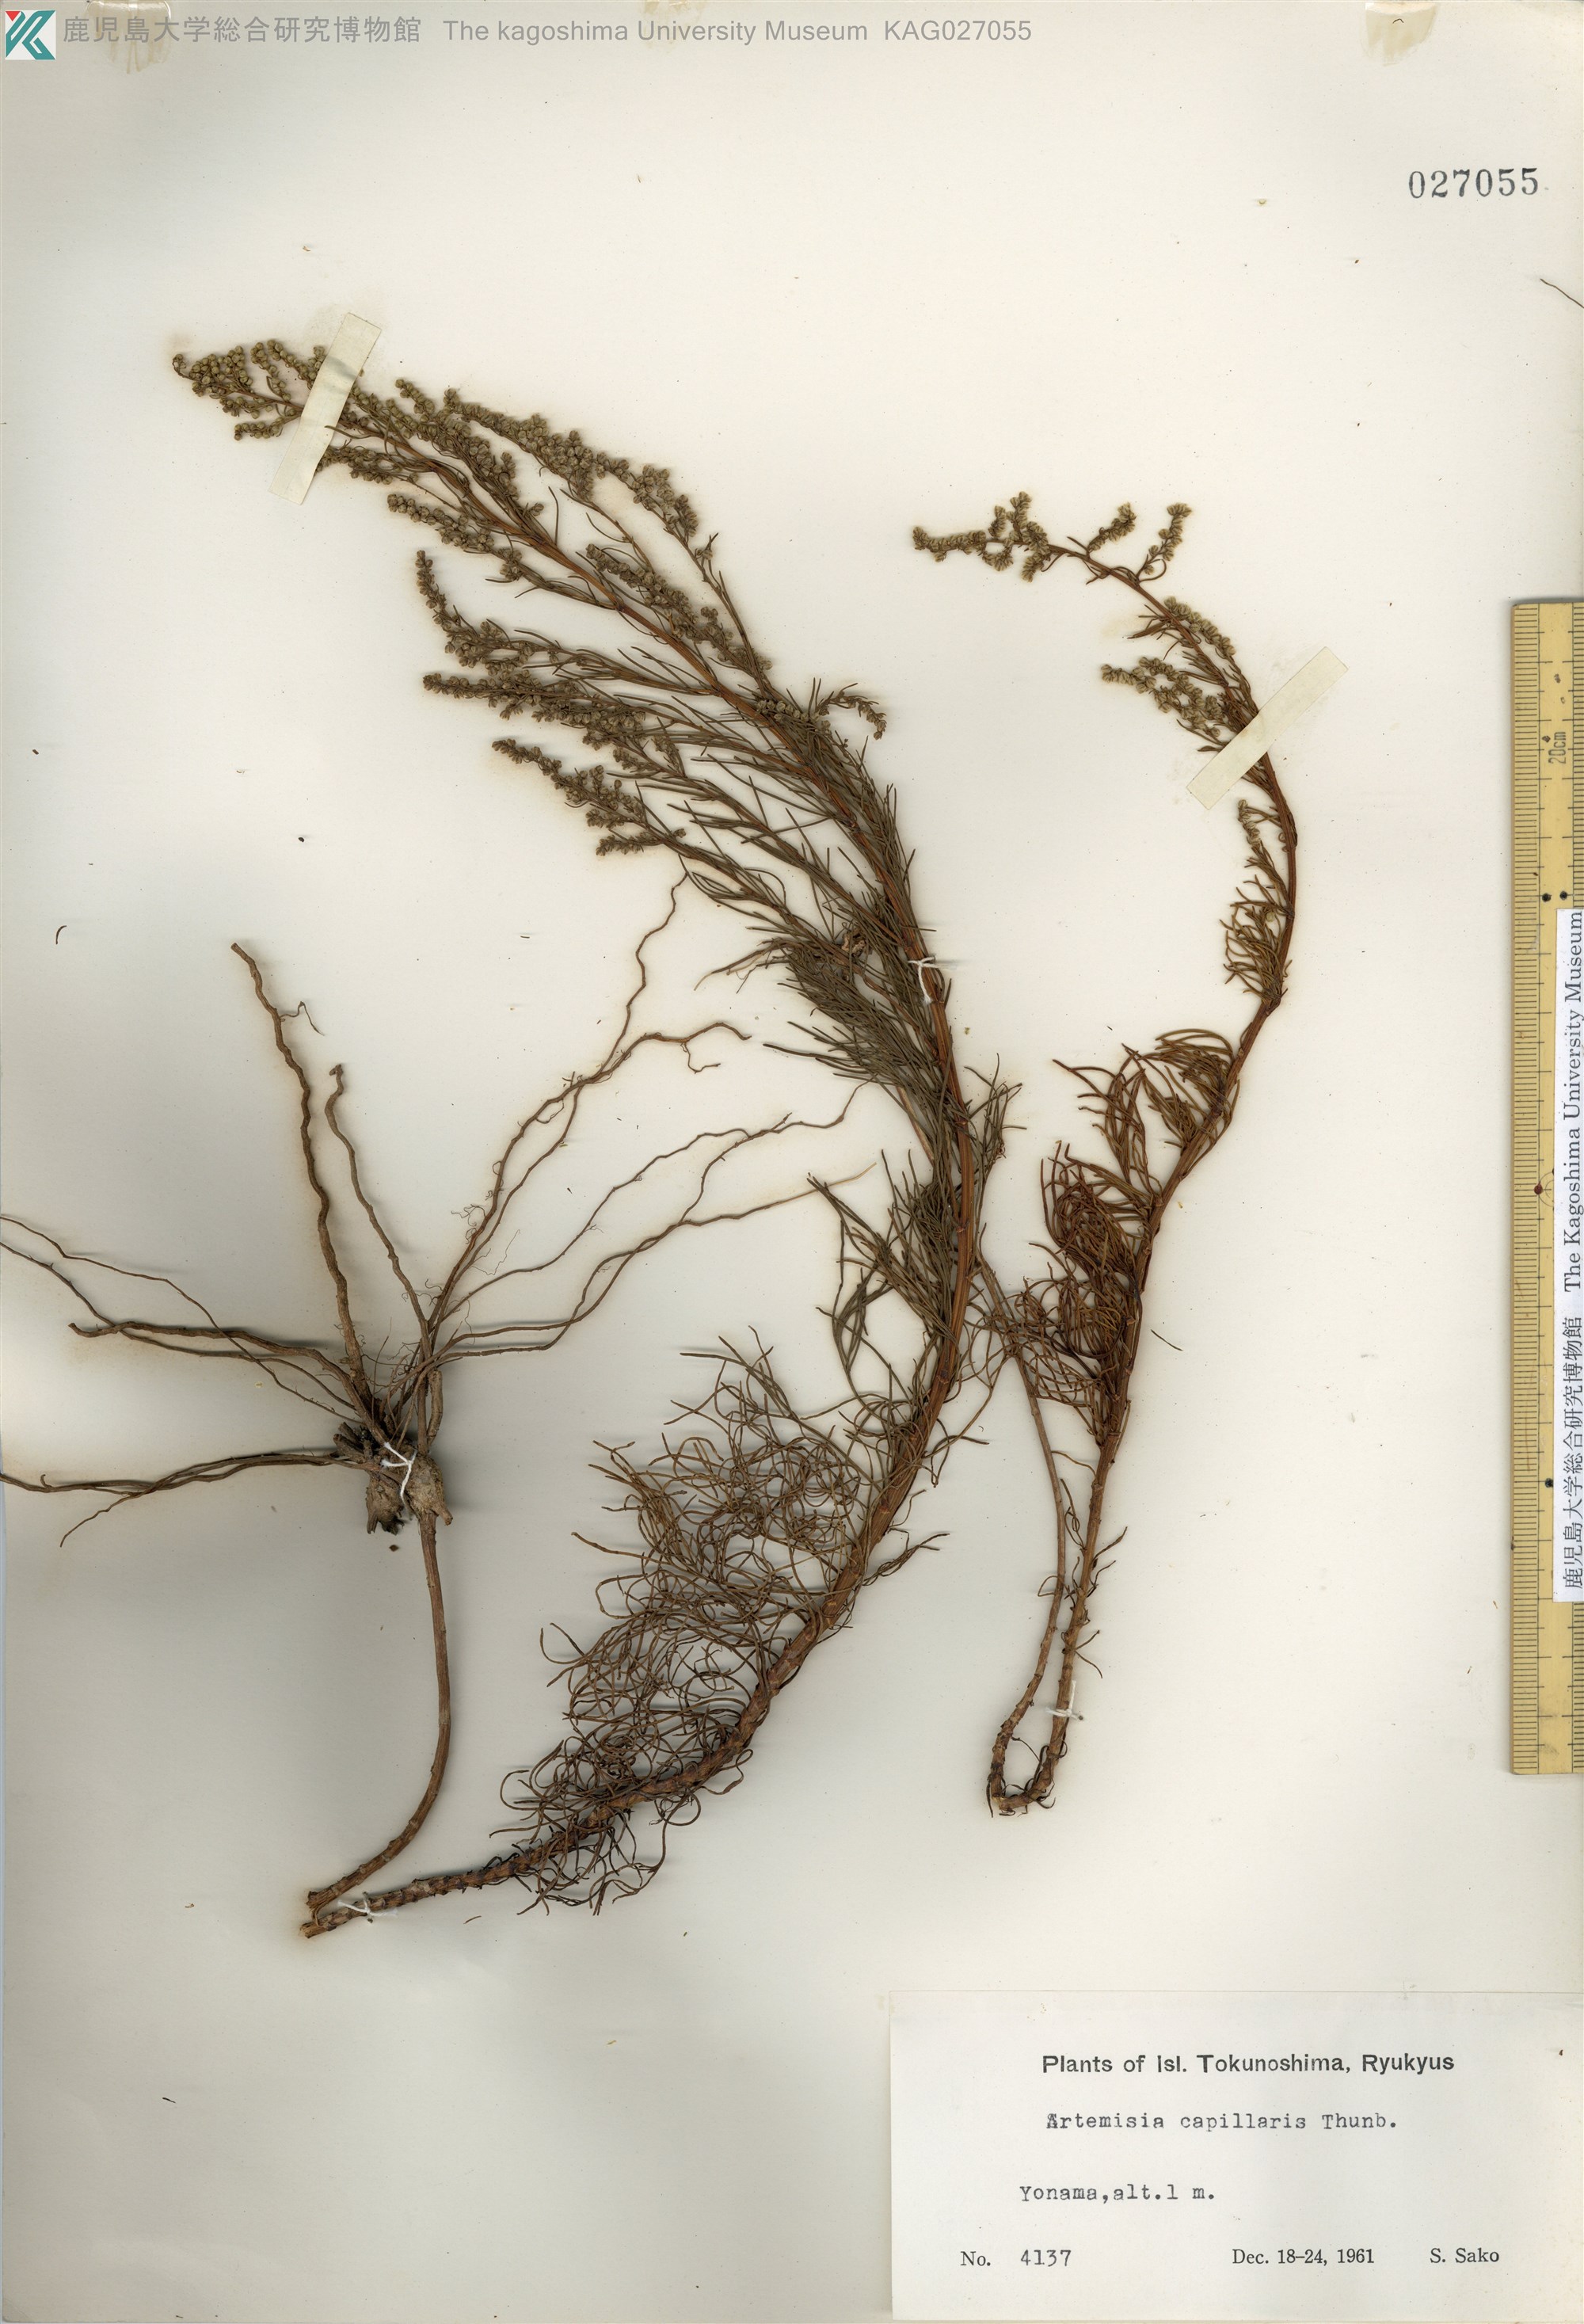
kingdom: Plantae
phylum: Tracheophyta
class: Magnoliopsida
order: Asterales
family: Asteraceae
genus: Artemisia
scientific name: Artemisia capillaris
